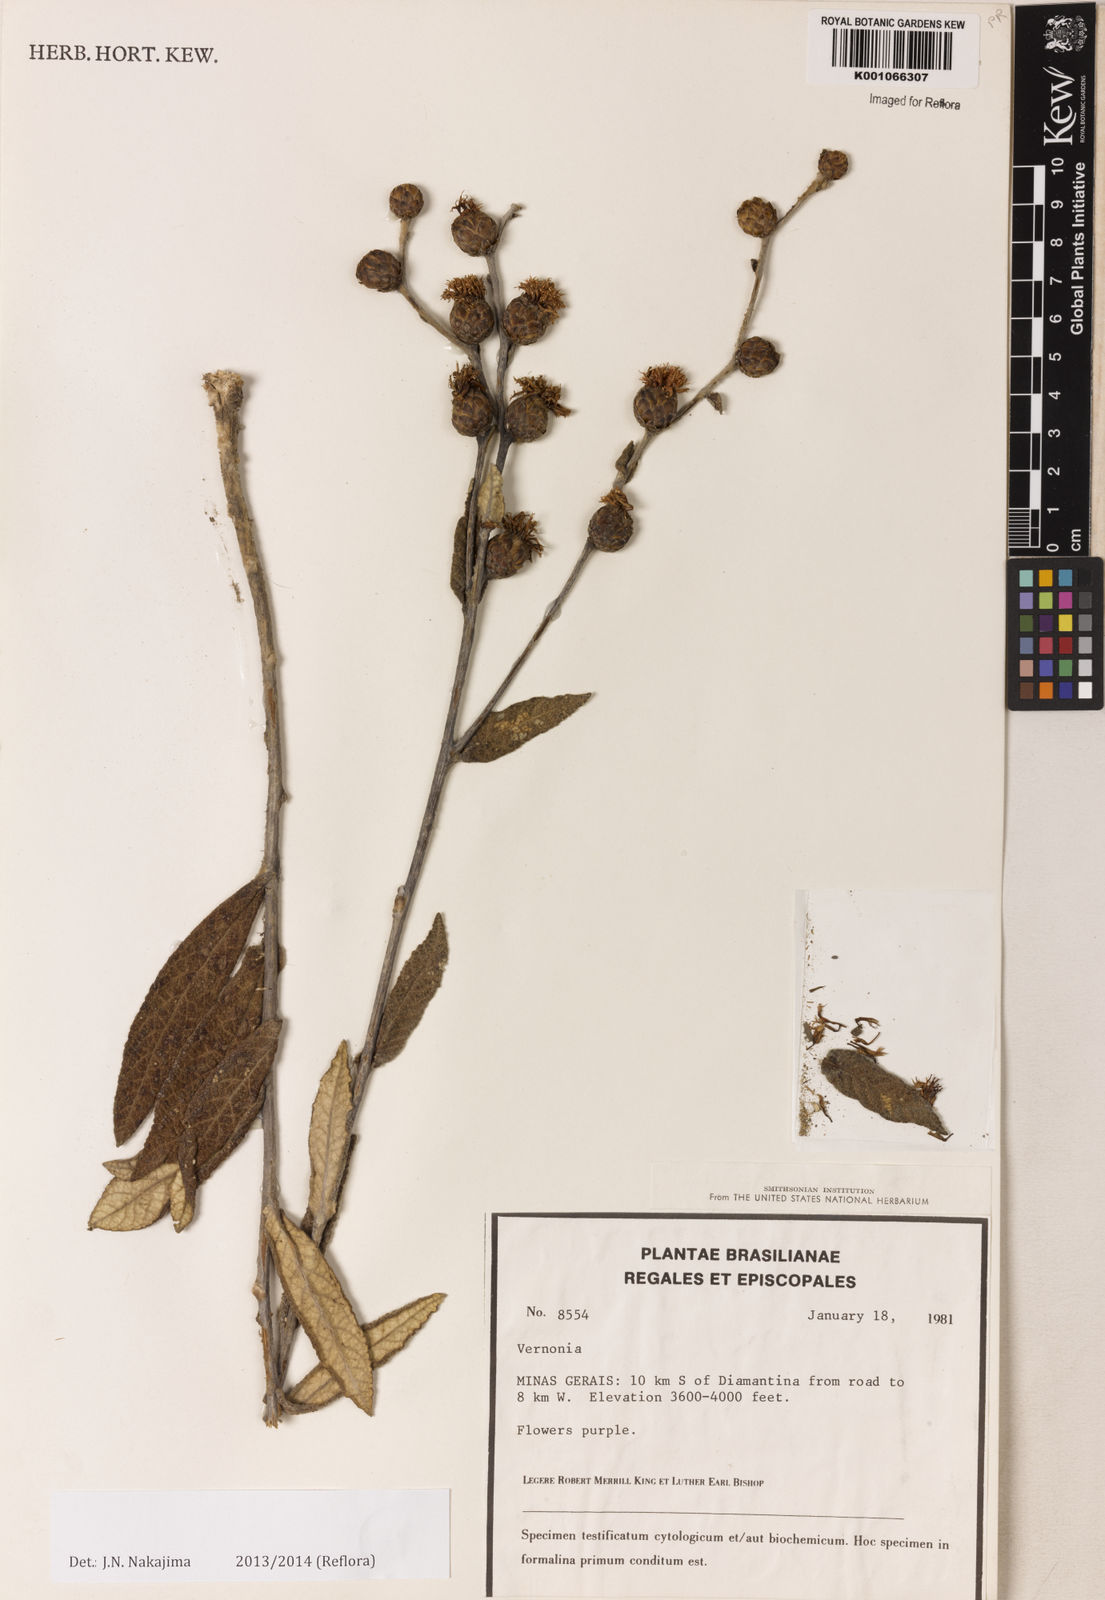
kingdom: Plantae
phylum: Tracheophyta
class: Magnoliopsida
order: Asterales
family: Asteraceae
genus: Lessingianthus
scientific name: Lessingianthus buddlejifolius
